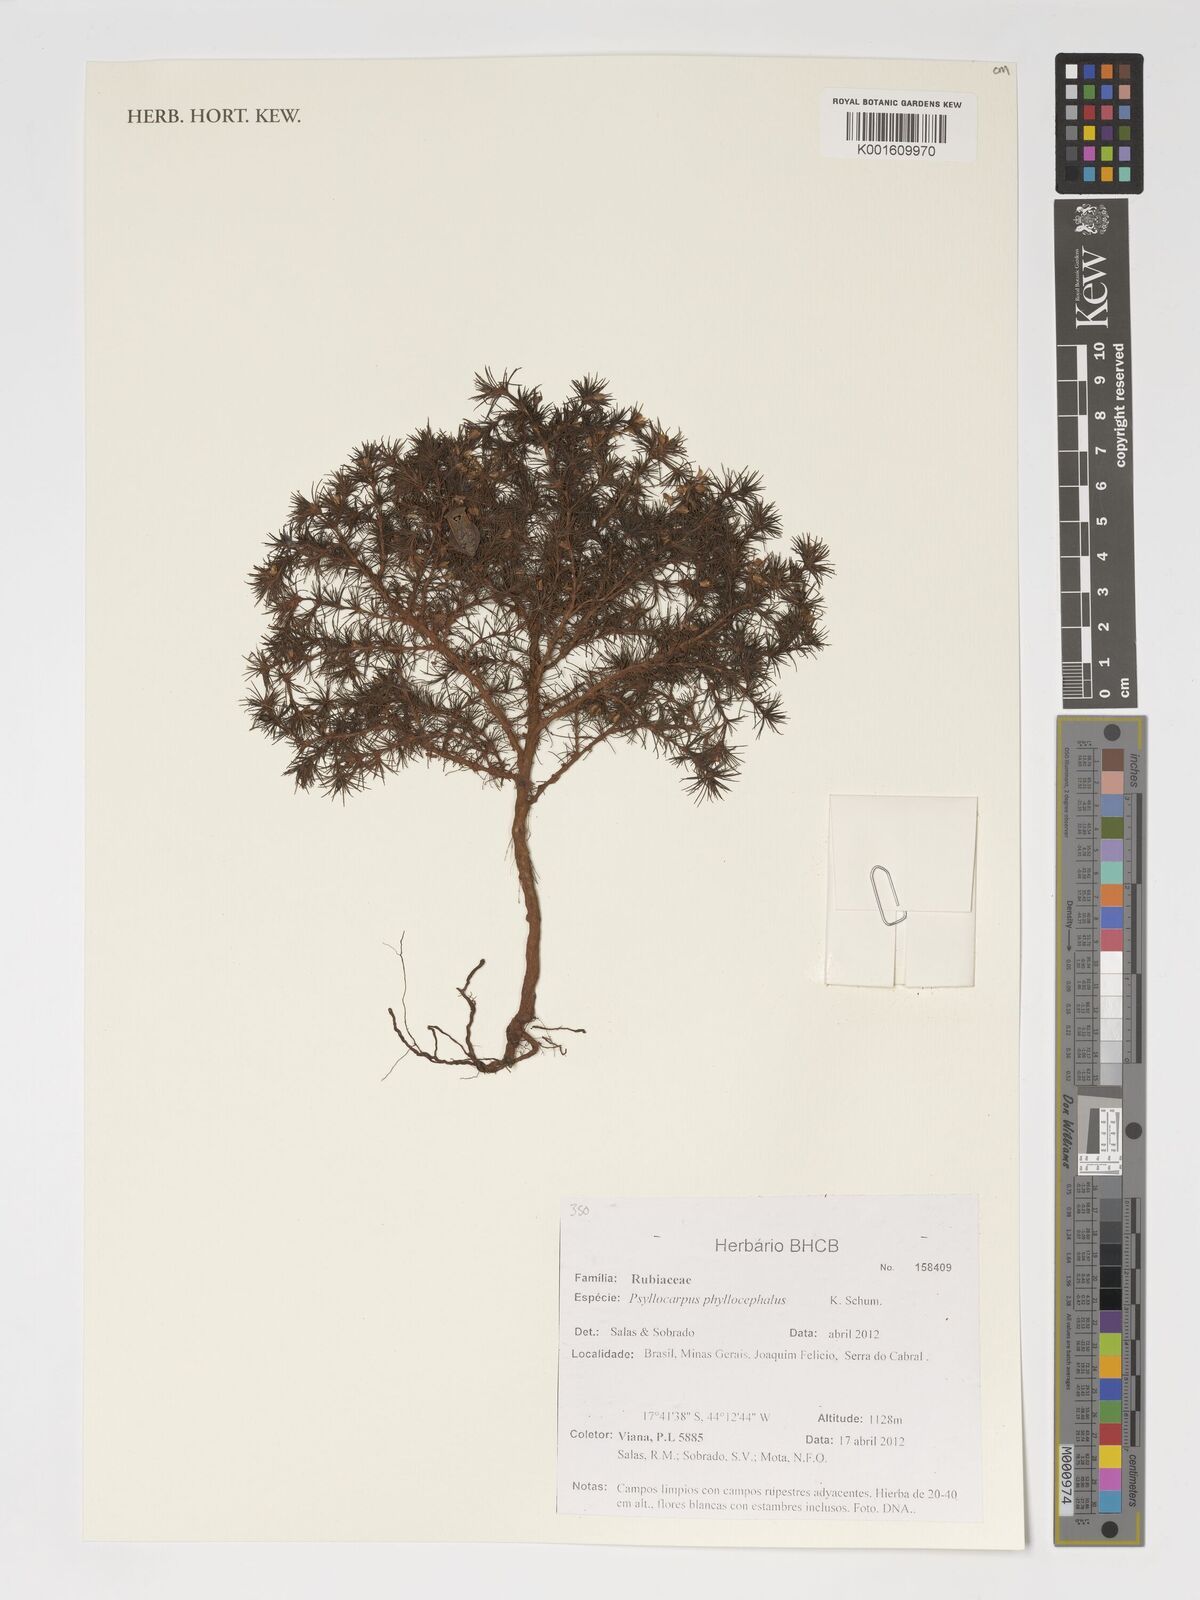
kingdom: Plantae
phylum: Tracheophyta
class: Magnoliopsida
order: Gentianales
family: Rubiaceae
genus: Psyllocarpus
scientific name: Psyllocarpus phyllocephalus
